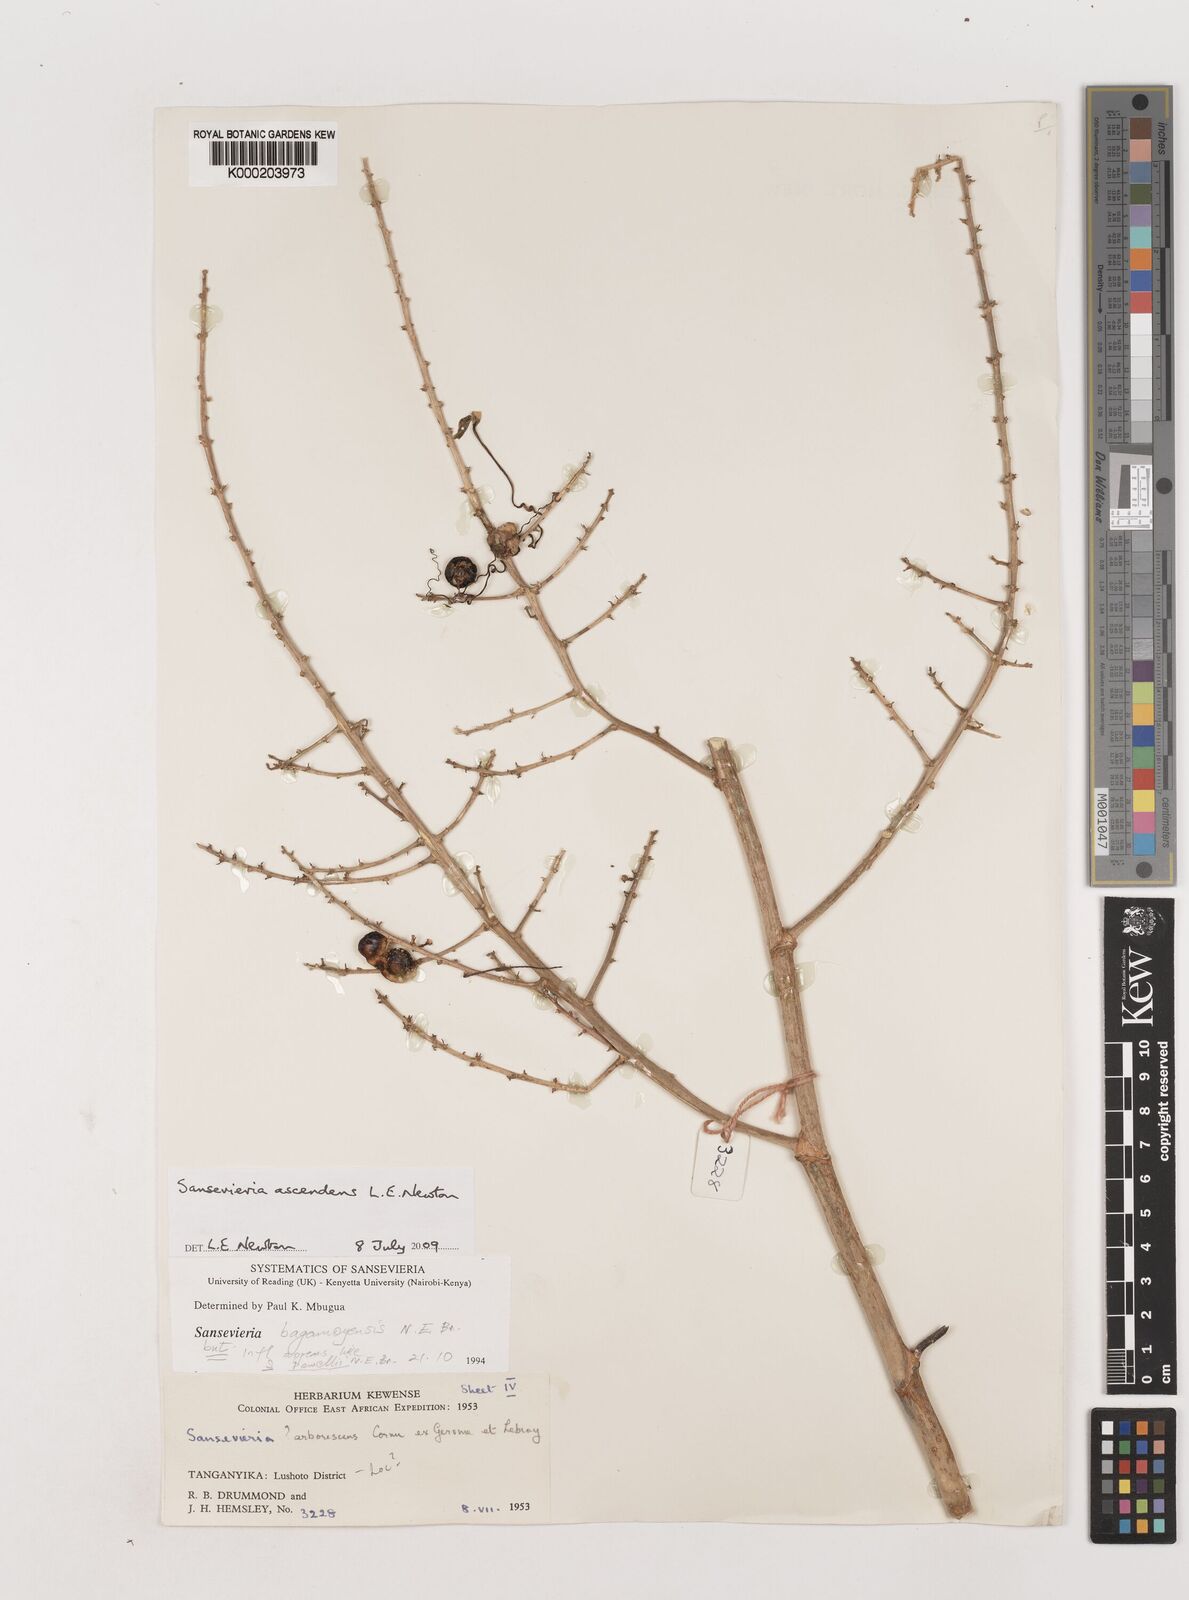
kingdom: Plantae
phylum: Tracheophyta
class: Liliopsida
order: Asparagales
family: Asparagaceae
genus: Dracaena
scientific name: Dracaena ascendens
